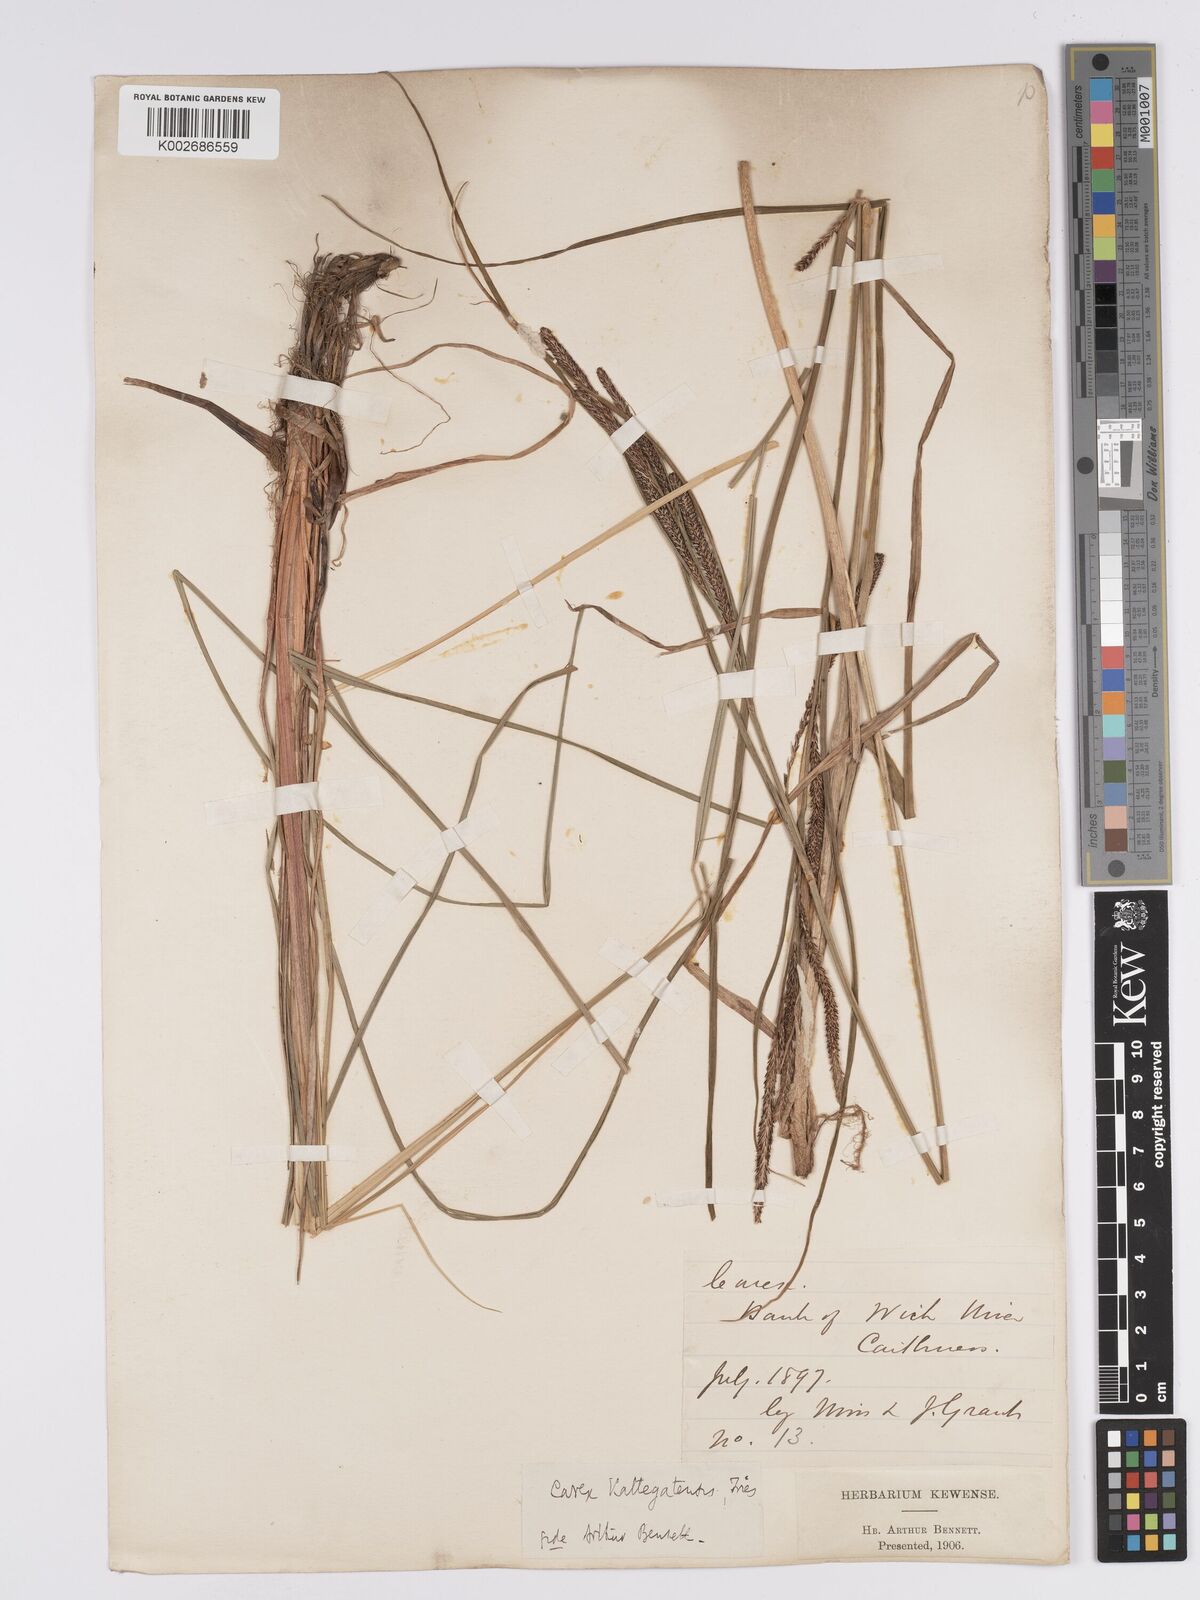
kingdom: Plantae
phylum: Tracheophyta
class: Liliopsida
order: Poales
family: Cyperaceae
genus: Carex
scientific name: Carex aquatilis
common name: Water sedge
